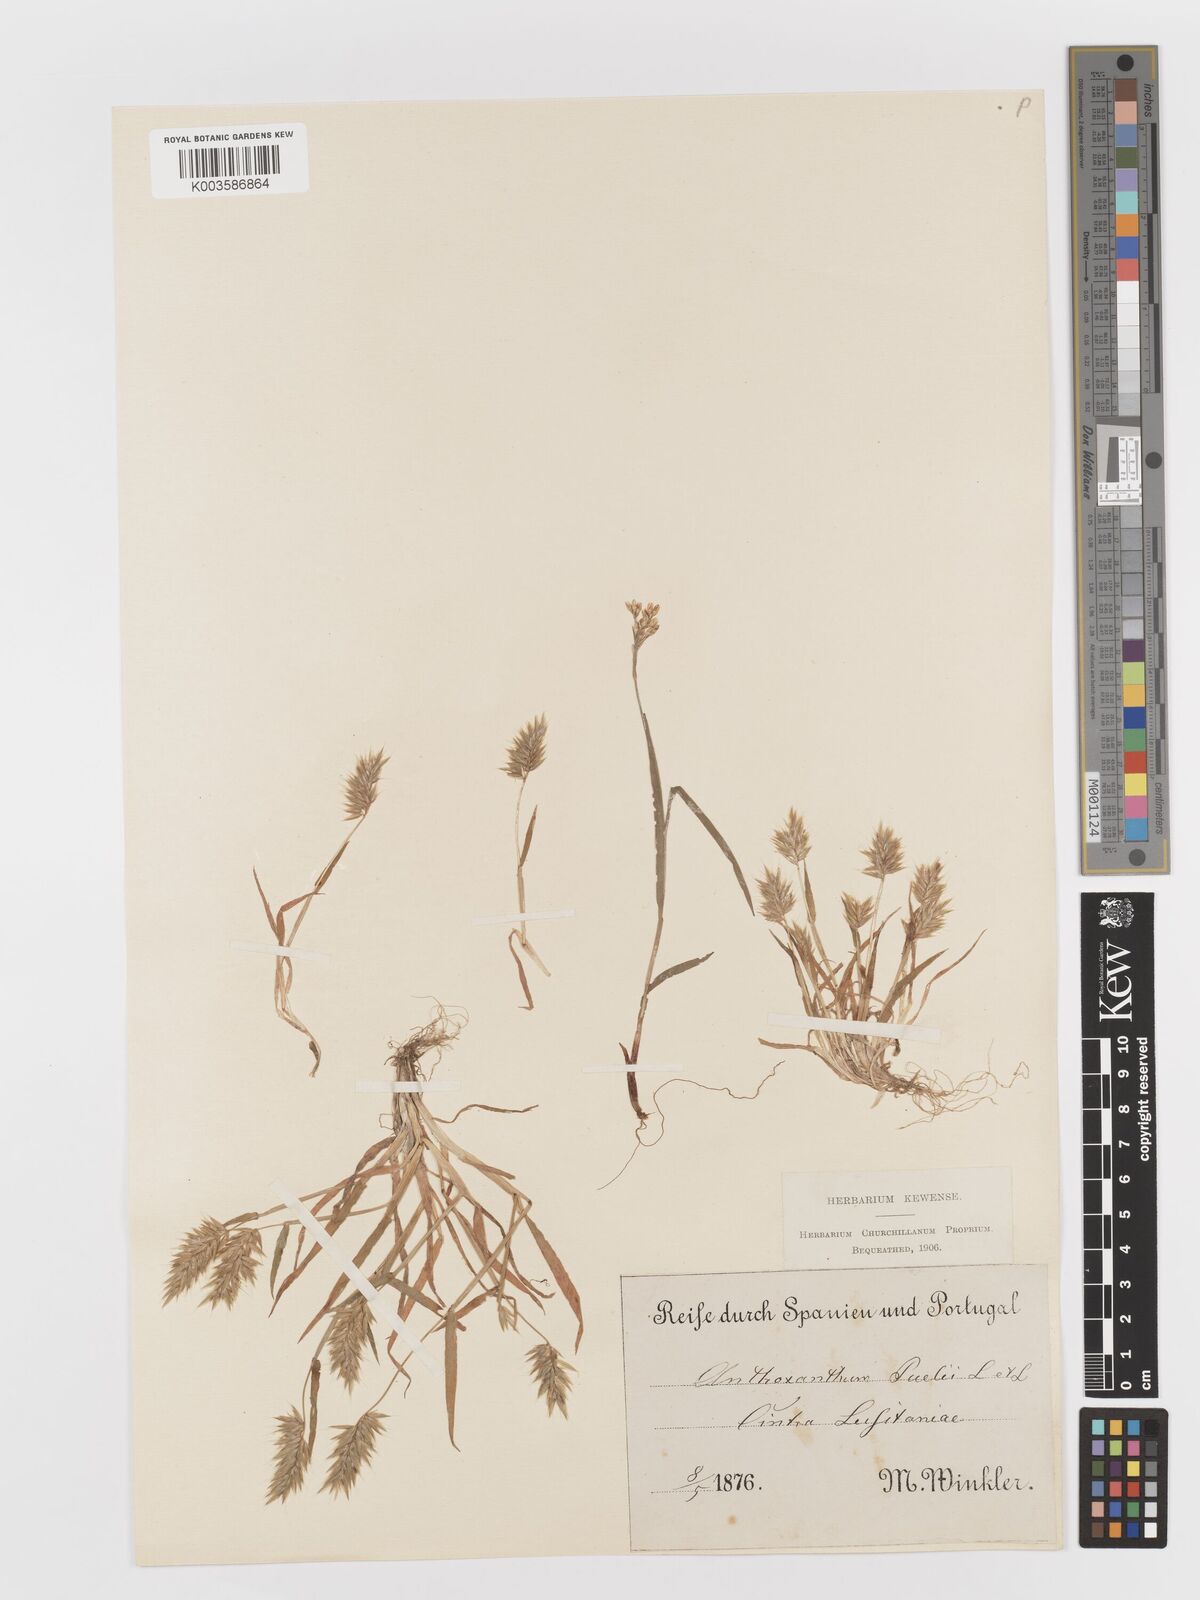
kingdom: Plantae
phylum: Tracheophyta
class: Liliopsida
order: Poales
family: Poaceae
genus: Anthoxanthum
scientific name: Anthoxanthum
